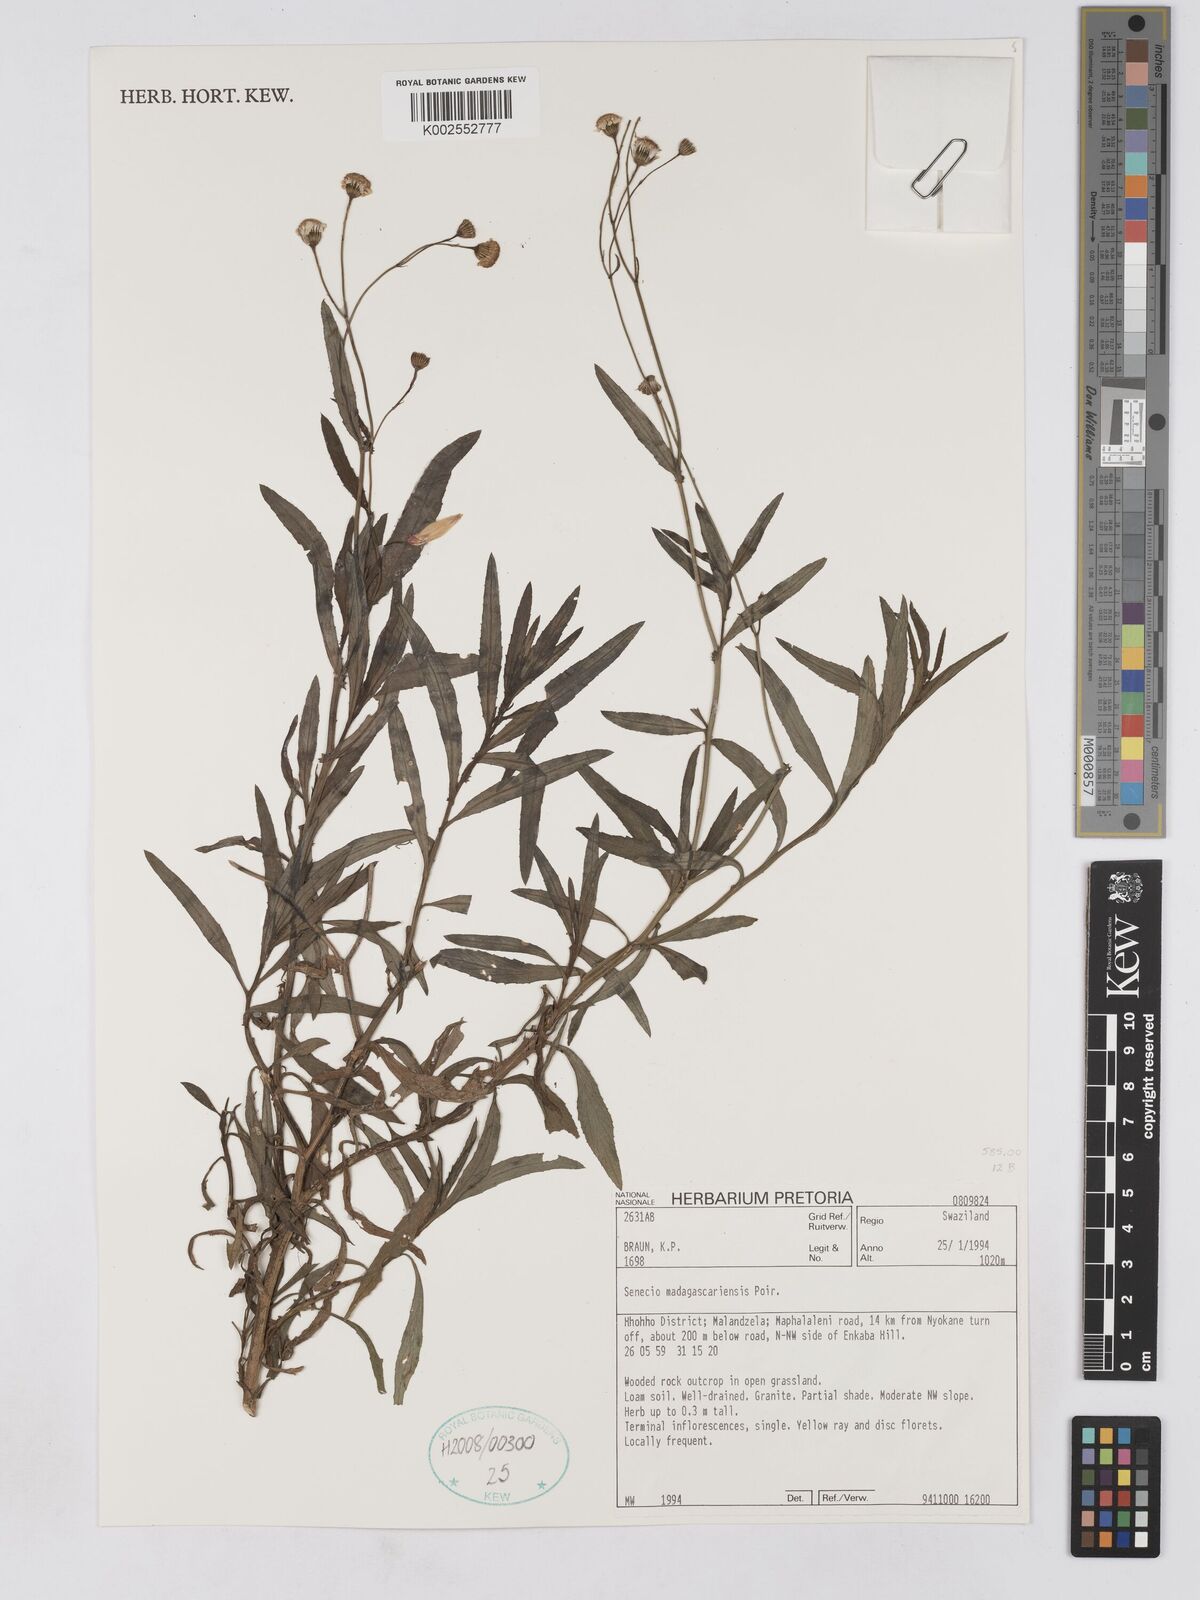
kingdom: Plantae
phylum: Tracheophyta
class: Magnoliopsida
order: Asterales
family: Asteraceae
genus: Senecio
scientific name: Senecio madagascariensis
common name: Madagascar ragwort
